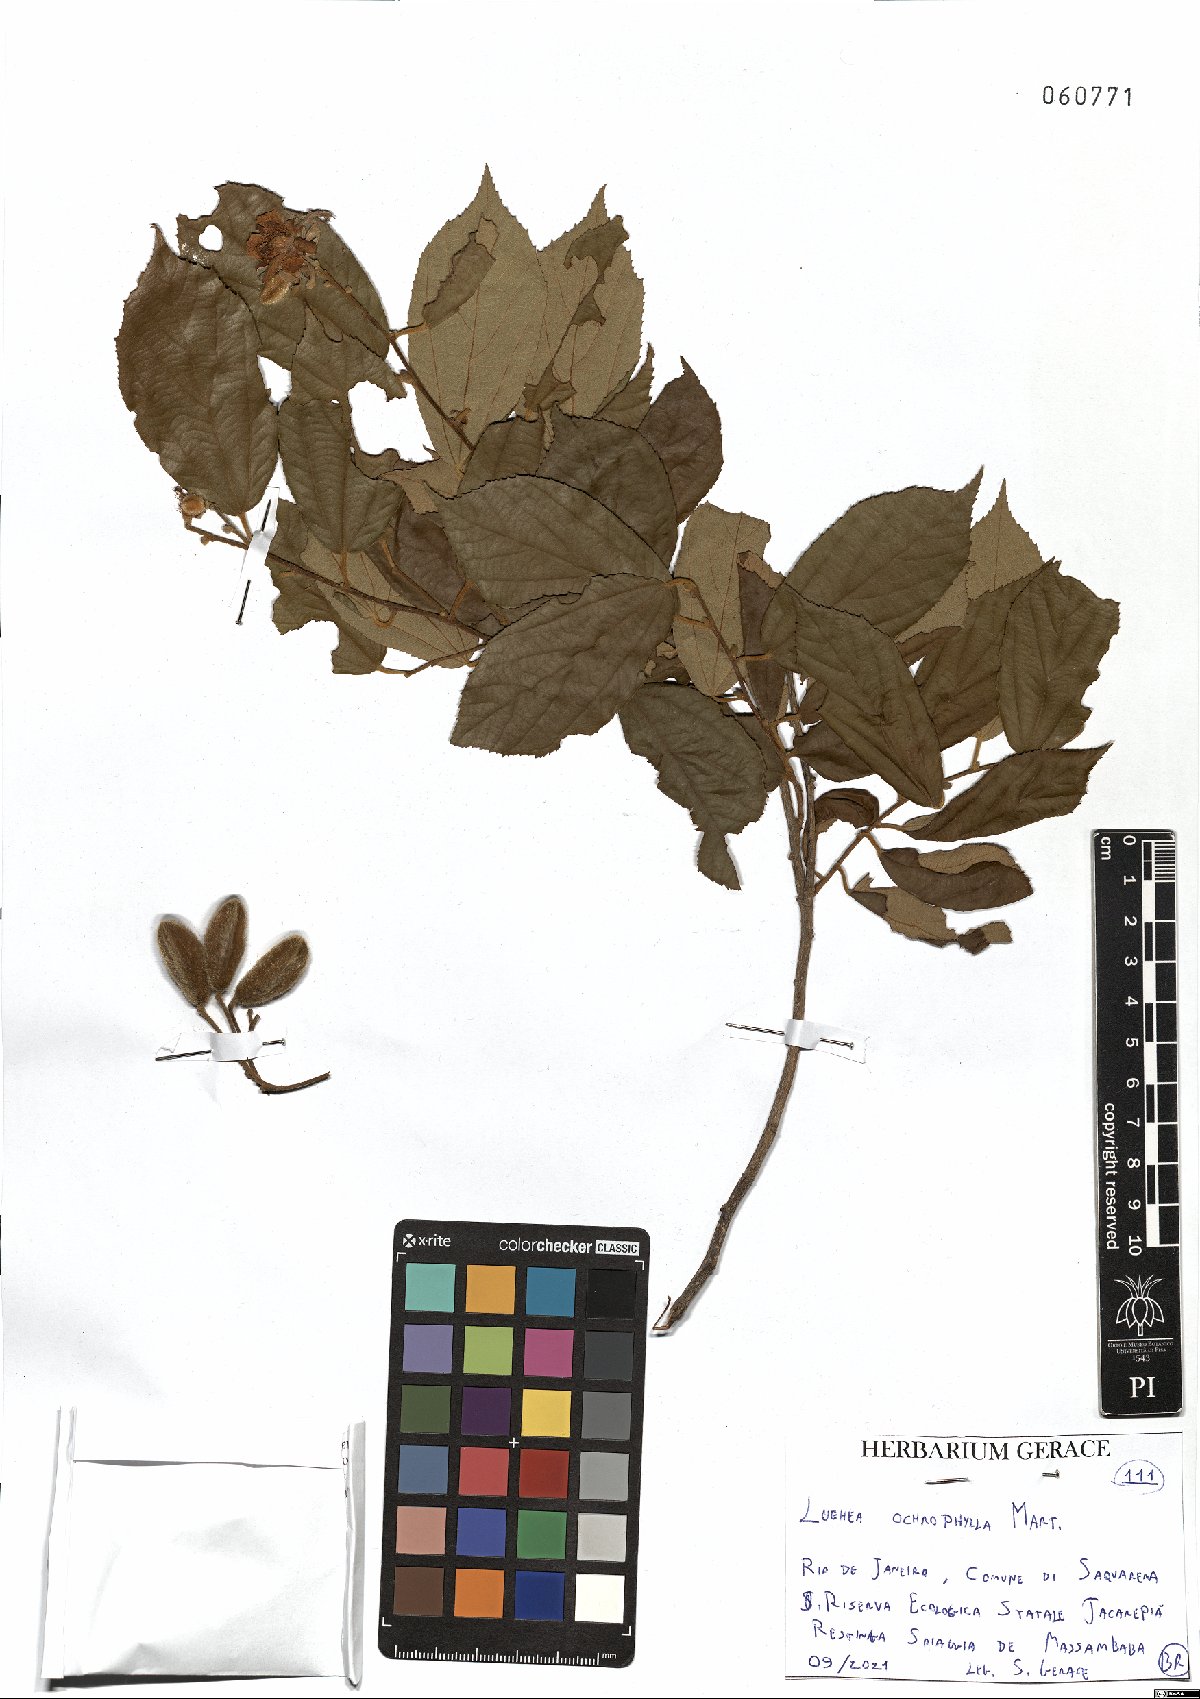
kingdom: Plantae
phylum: Tracheophyta
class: Magnoliopsida
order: Malvales
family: Malvaceae
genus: Luehea
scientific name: Luehea ochrophylla
